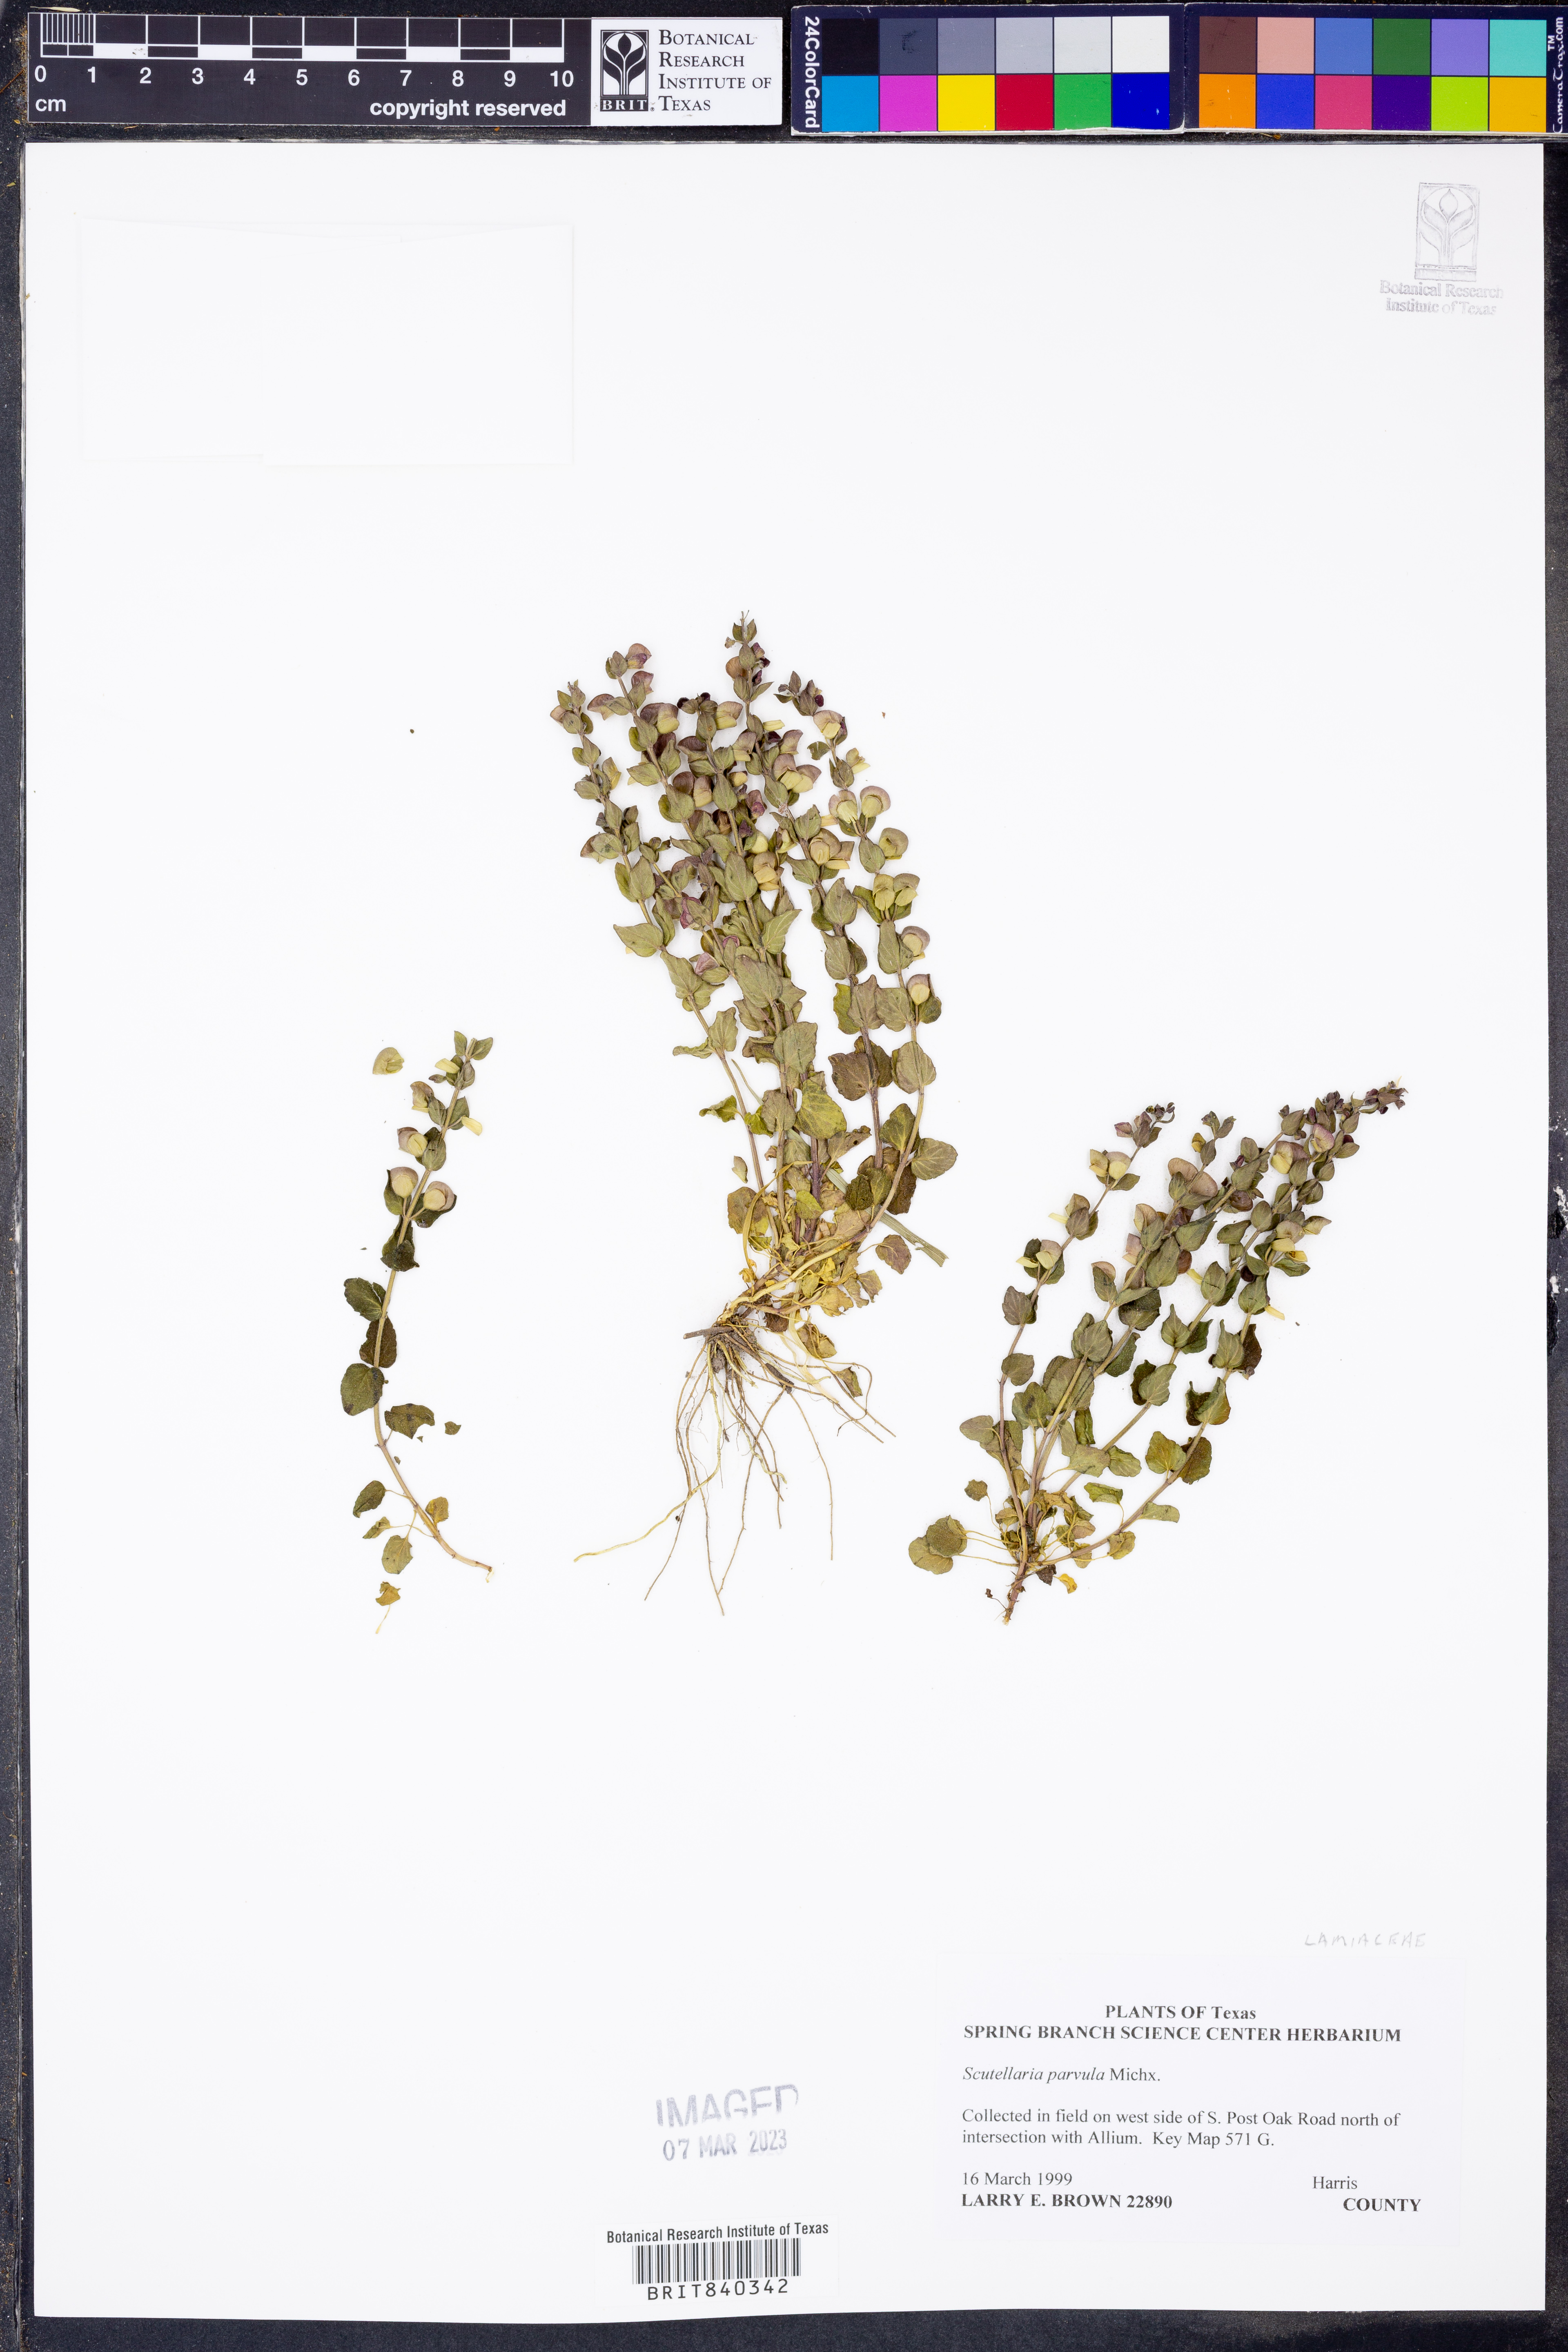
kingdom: Plantae
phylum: Tracheophyta
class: Magnoliopsida
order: Lamiales
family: Lamiaceae
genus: Scutellaria
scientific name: Scutellaria parvula
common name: Little scullcap
